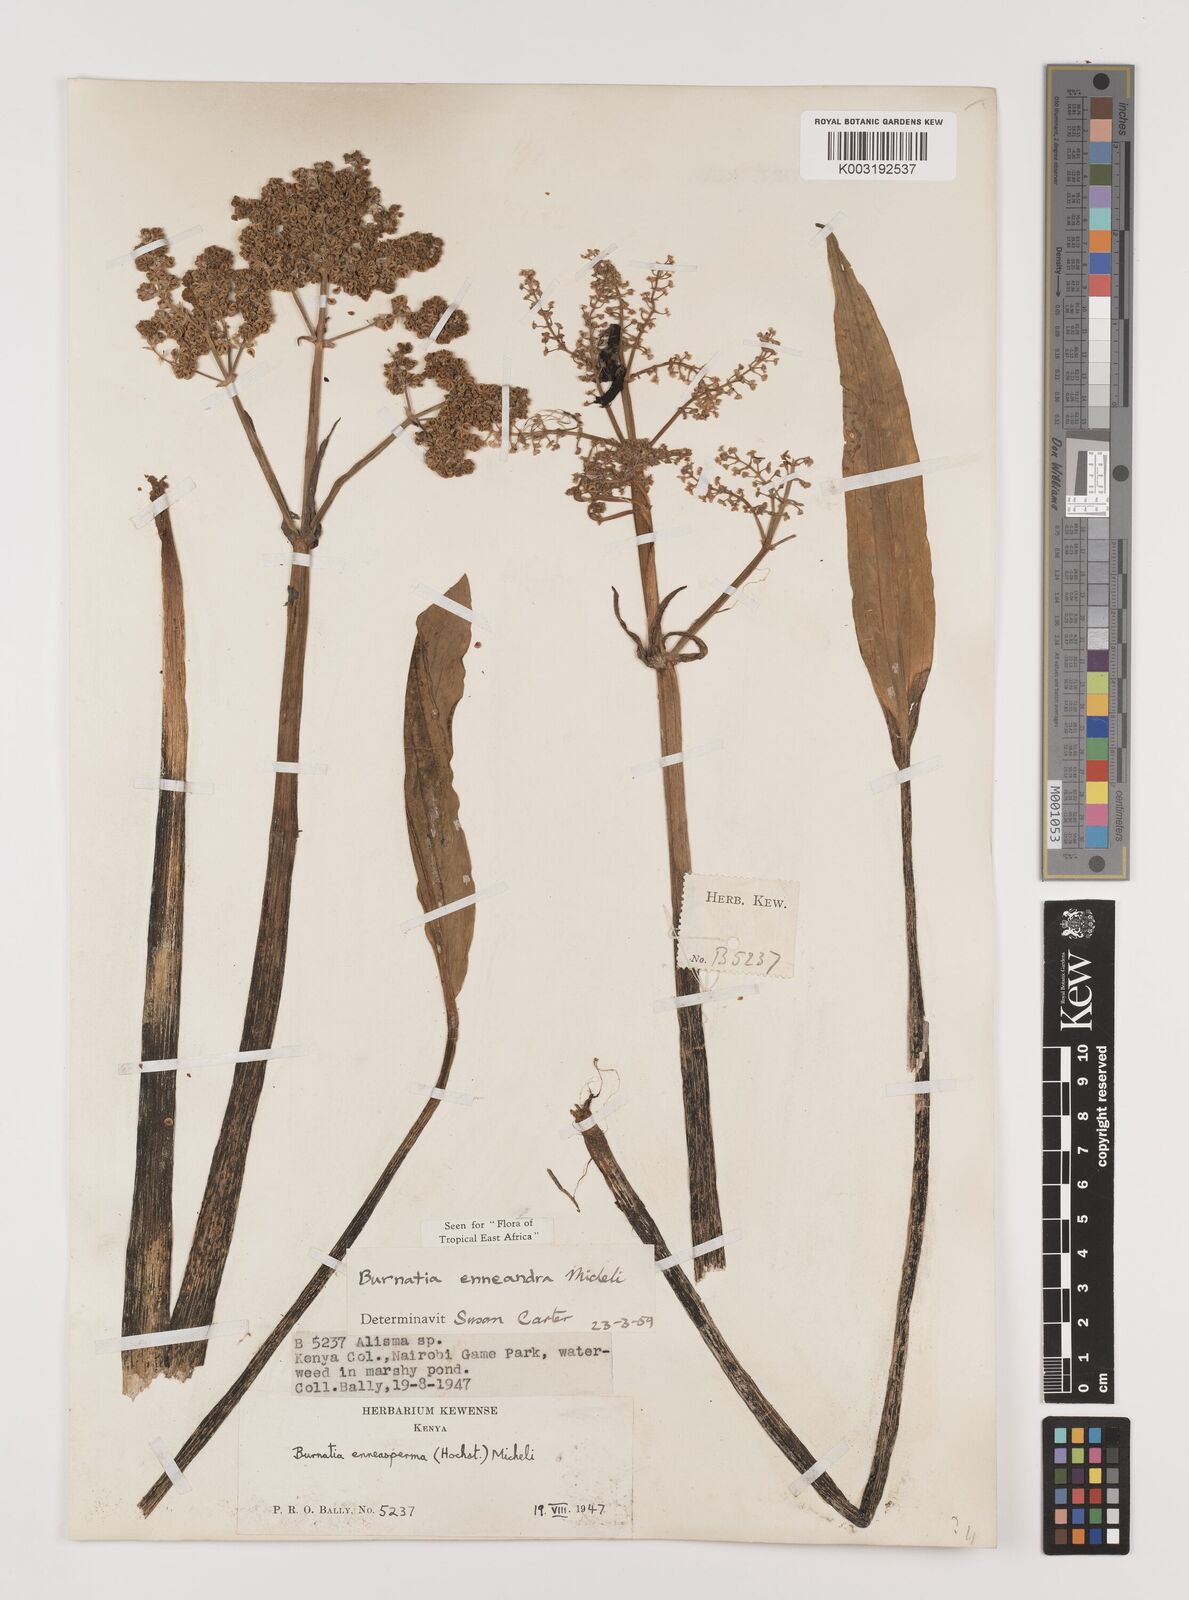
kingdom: Plantae
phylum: Tracheophyta
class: Liliopsida
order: Alismatales
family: Alismataceae
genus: Burnatia
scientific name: Burnatia enneandra
